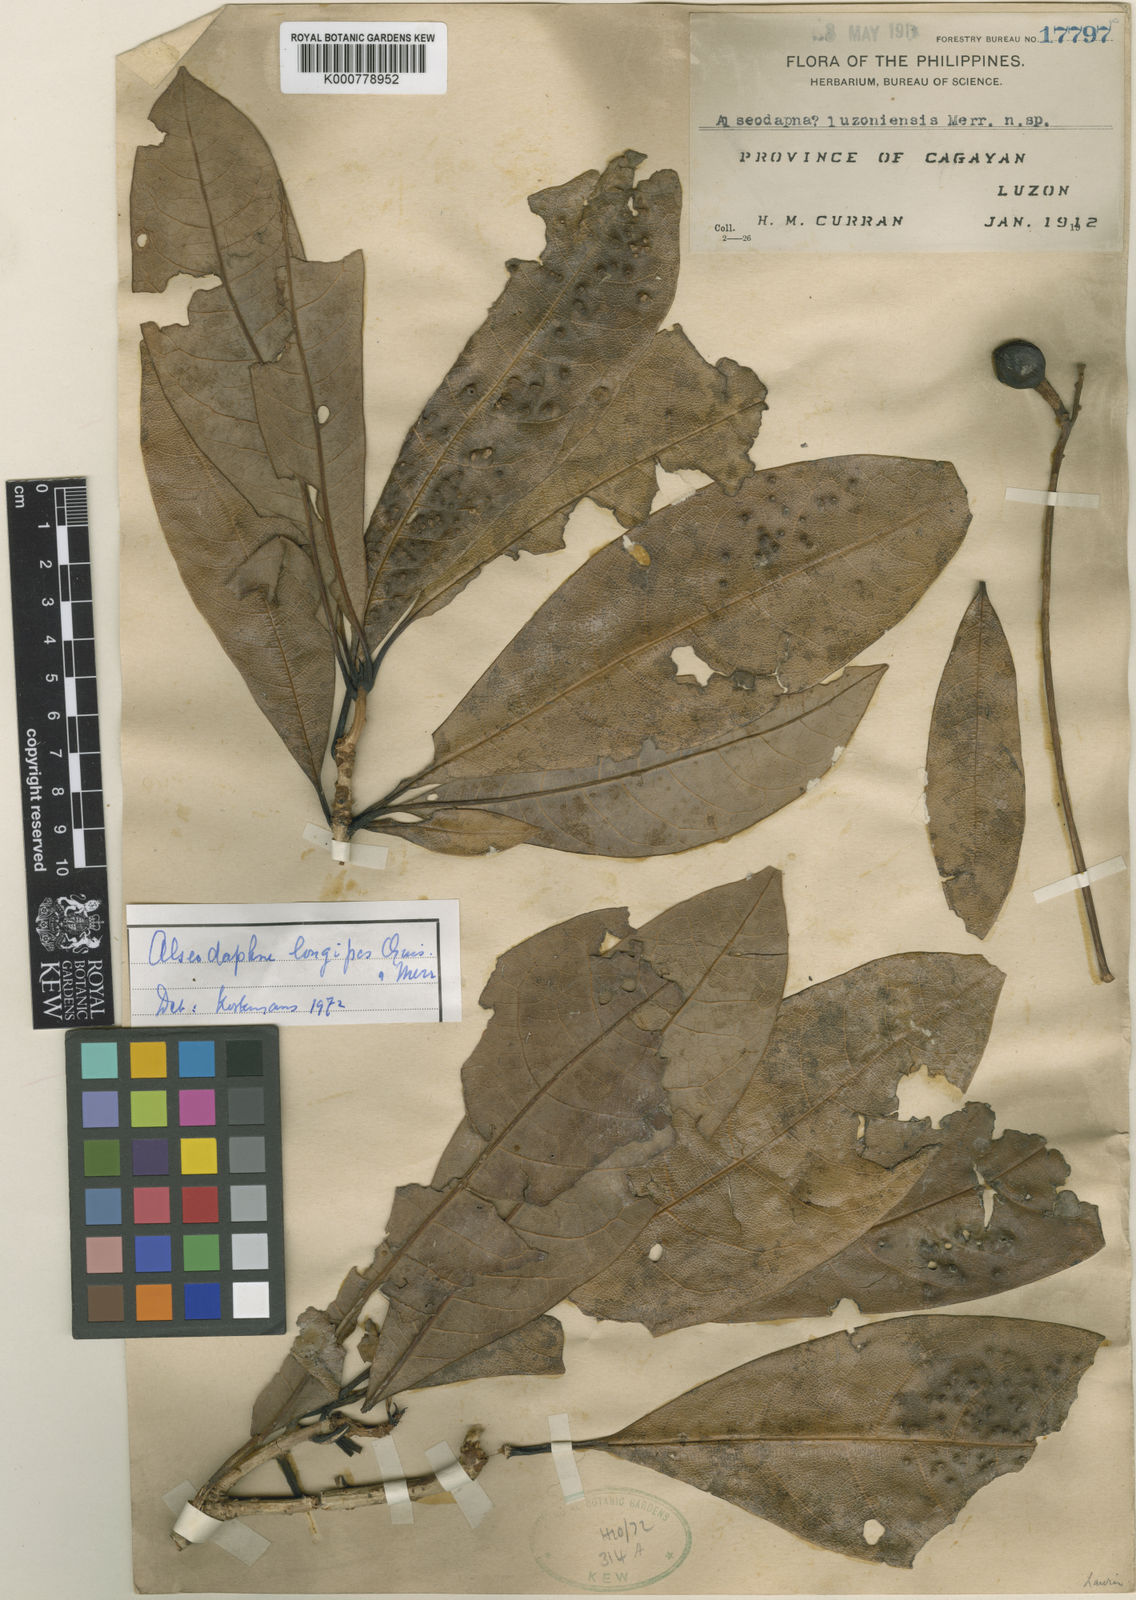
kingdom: Plantae
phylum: Tracheophyta
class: Magnoliopsida
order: Laurales
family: Lauraceae
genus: Alseodaphne
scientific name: Alseodaphne philippinensis
